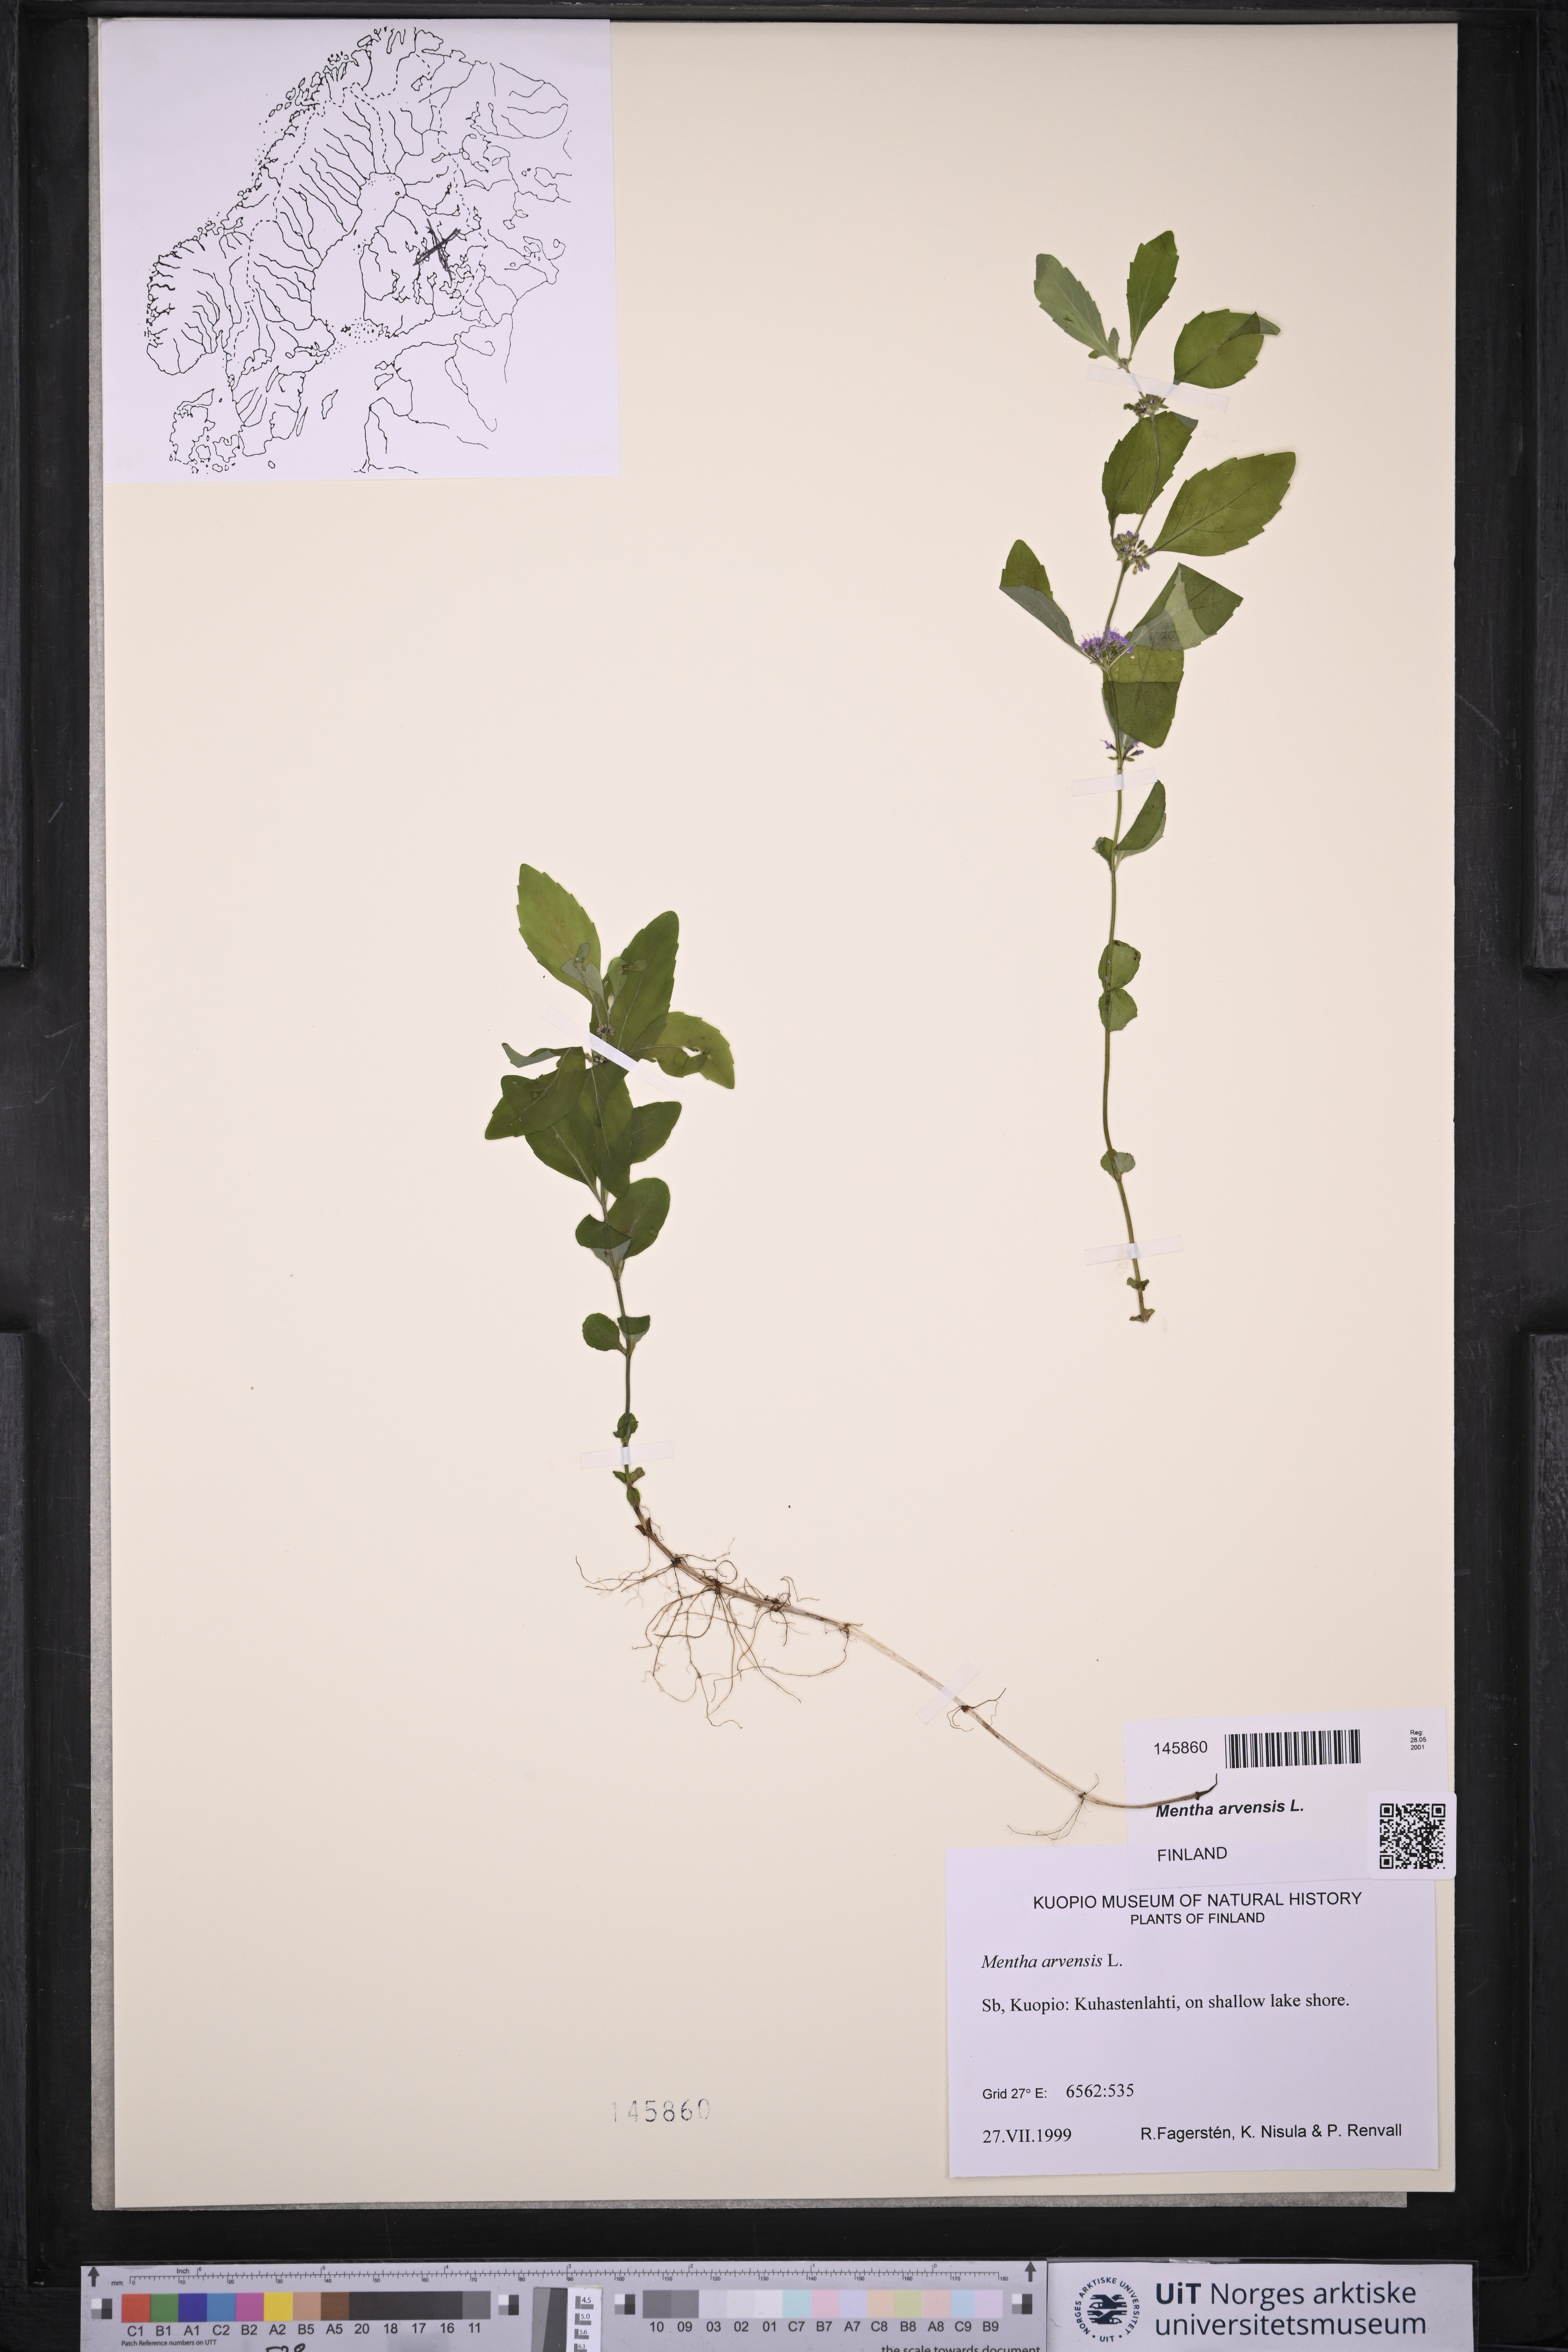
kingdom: Plantae
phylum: Tracheophyta
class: Magnoliopsida
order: Lamiales
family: Lamiaceae
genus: Mentha
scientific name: Mentha arvensis
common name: Corn mint
